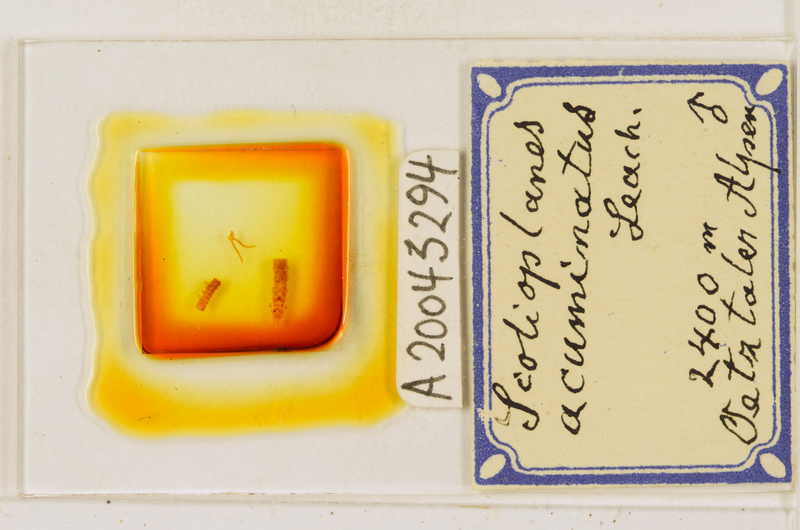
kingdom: Animalia
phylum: Arthropoda
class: Chilopoda
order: Geophilomorpha
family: Linotaeniidae
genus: Strigamia
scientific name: Strigamia acuminata
